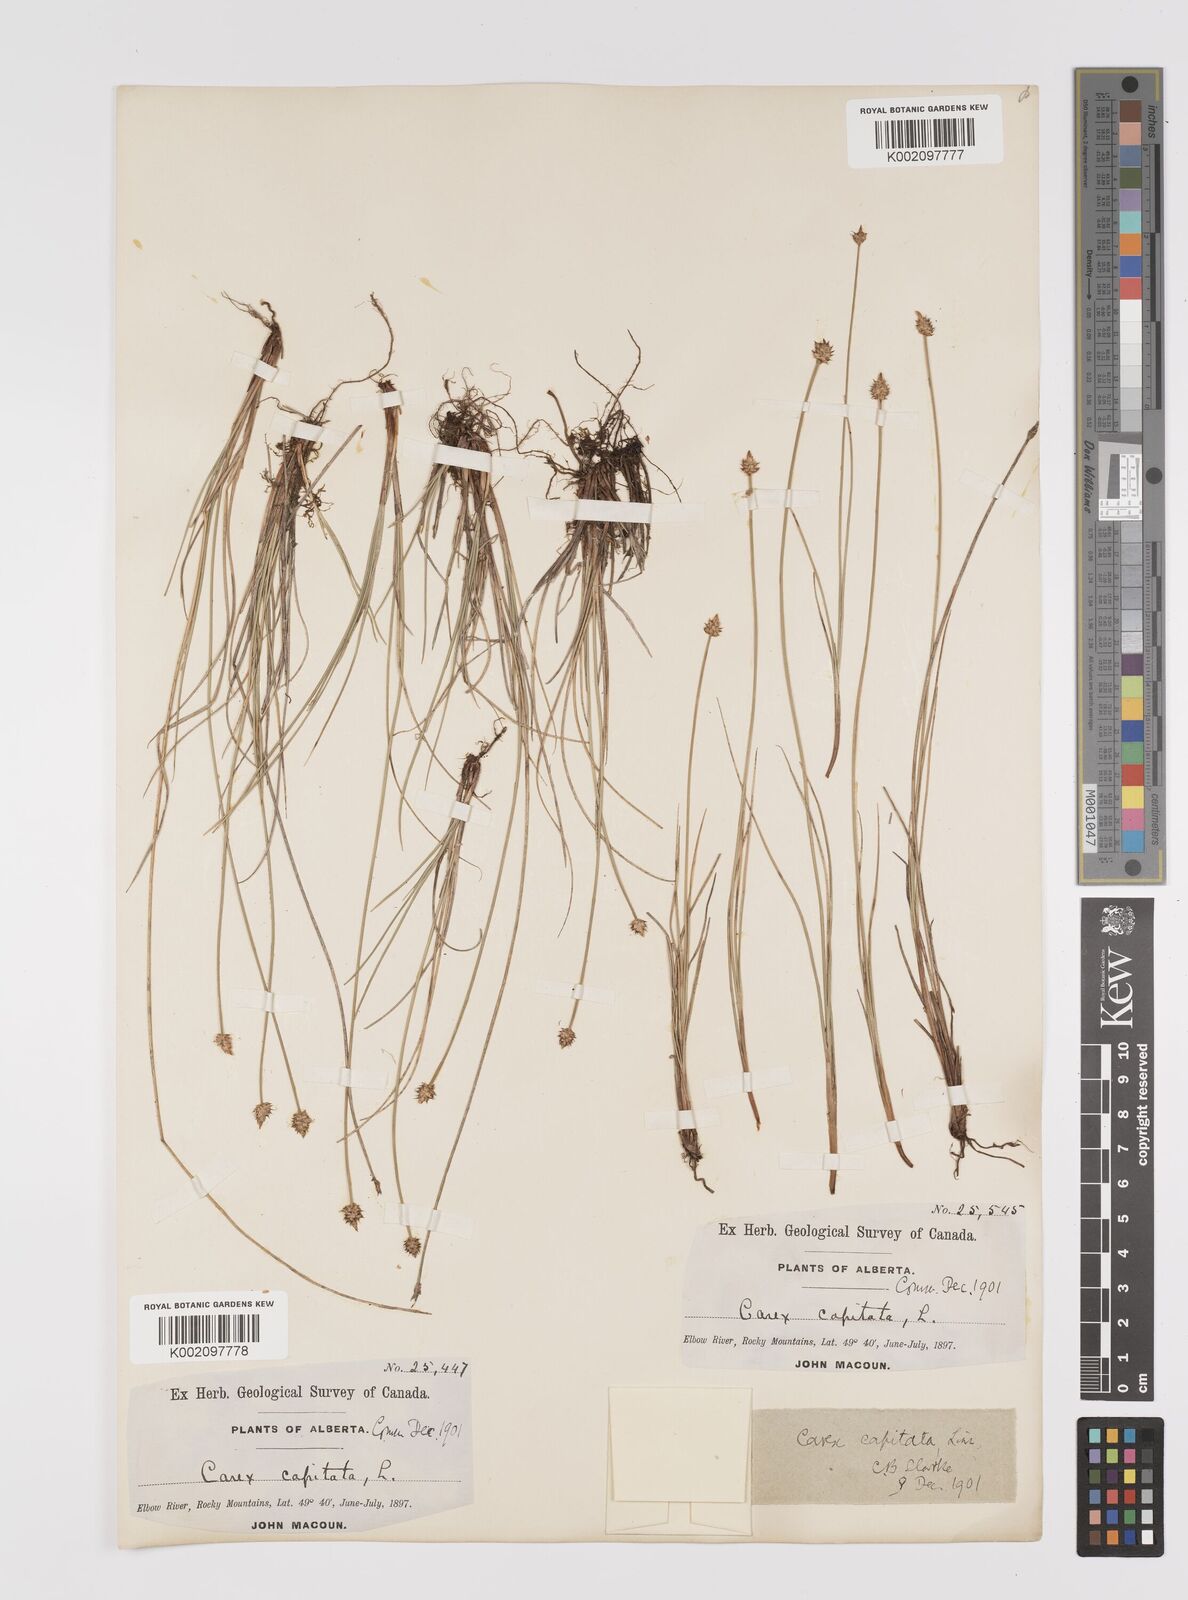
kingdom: Plantae
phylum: Tracheophyta
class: Liliopsida
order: Poales
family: Cyperaceae
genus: Carex
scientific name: Carex capitata
